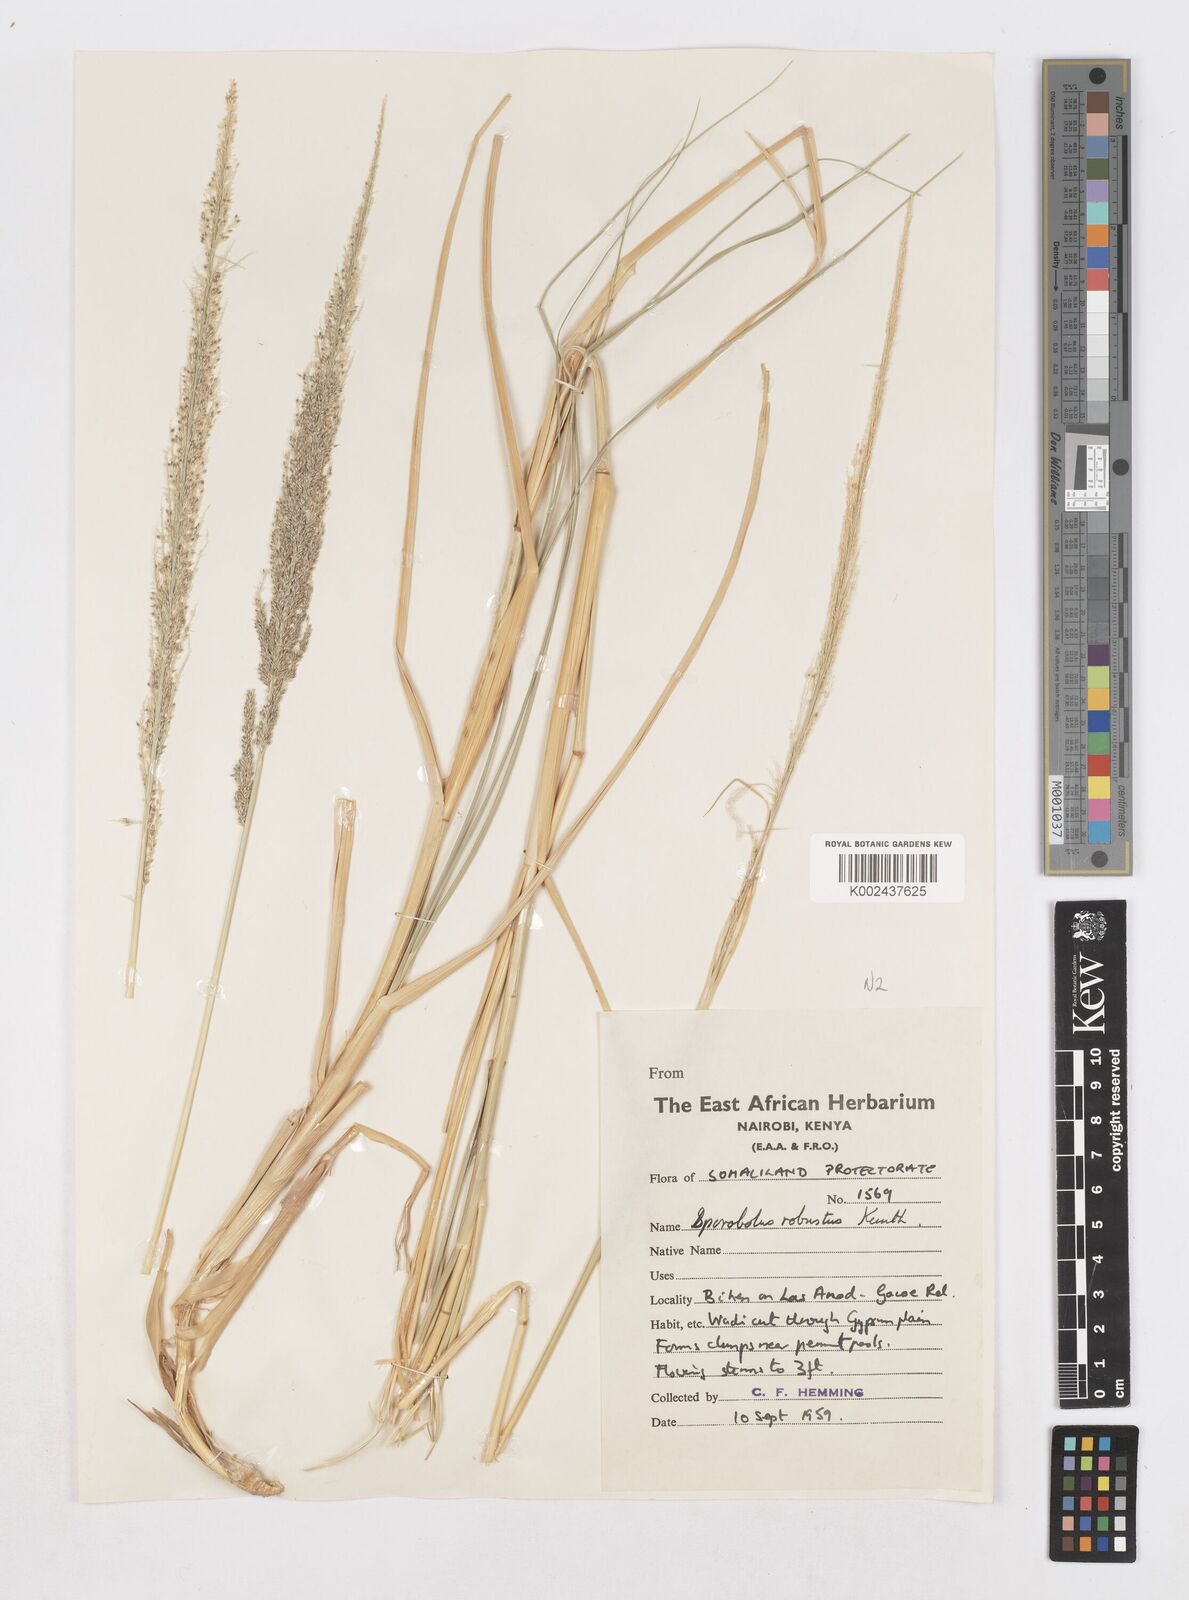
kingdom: Plantae
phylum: Tracheophyta
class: Liliopsida
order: Poales
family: Poaceae
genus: Sporobolus
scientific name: Sporobolus consimilis
